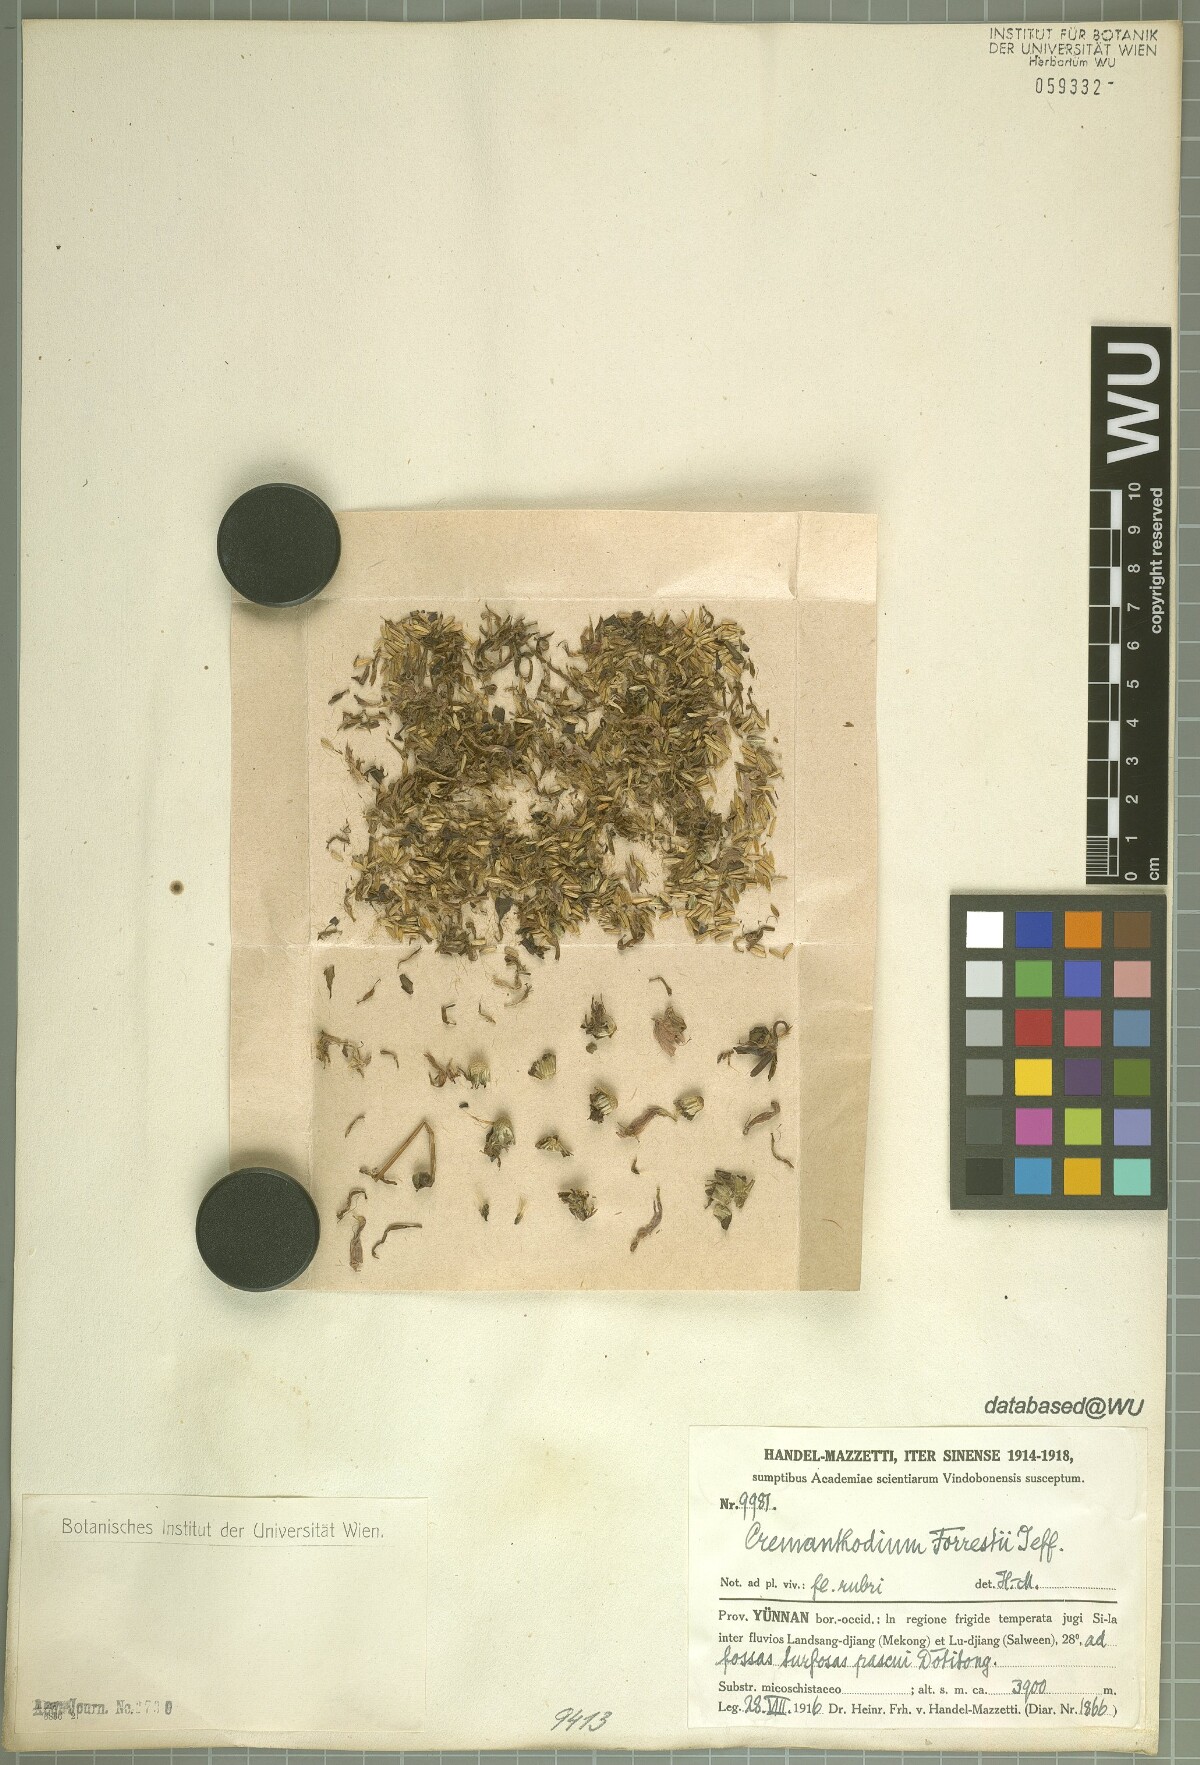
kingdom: Plantae
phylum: Tracheophyta
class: Magnoliopsida
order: Asterales
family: Asteraceae
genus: Cremanthodium
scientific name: Cremanthodium forrestii
